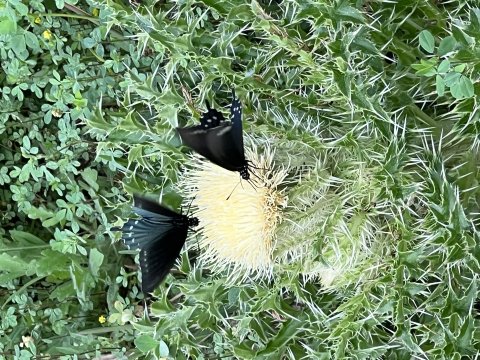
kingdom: Animalia
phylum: Arthropoda
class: Insecta
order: Lepidoptera
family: Papilionidae
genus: Battus
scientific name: Battus philenor
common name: Pipevine Swallowtail
